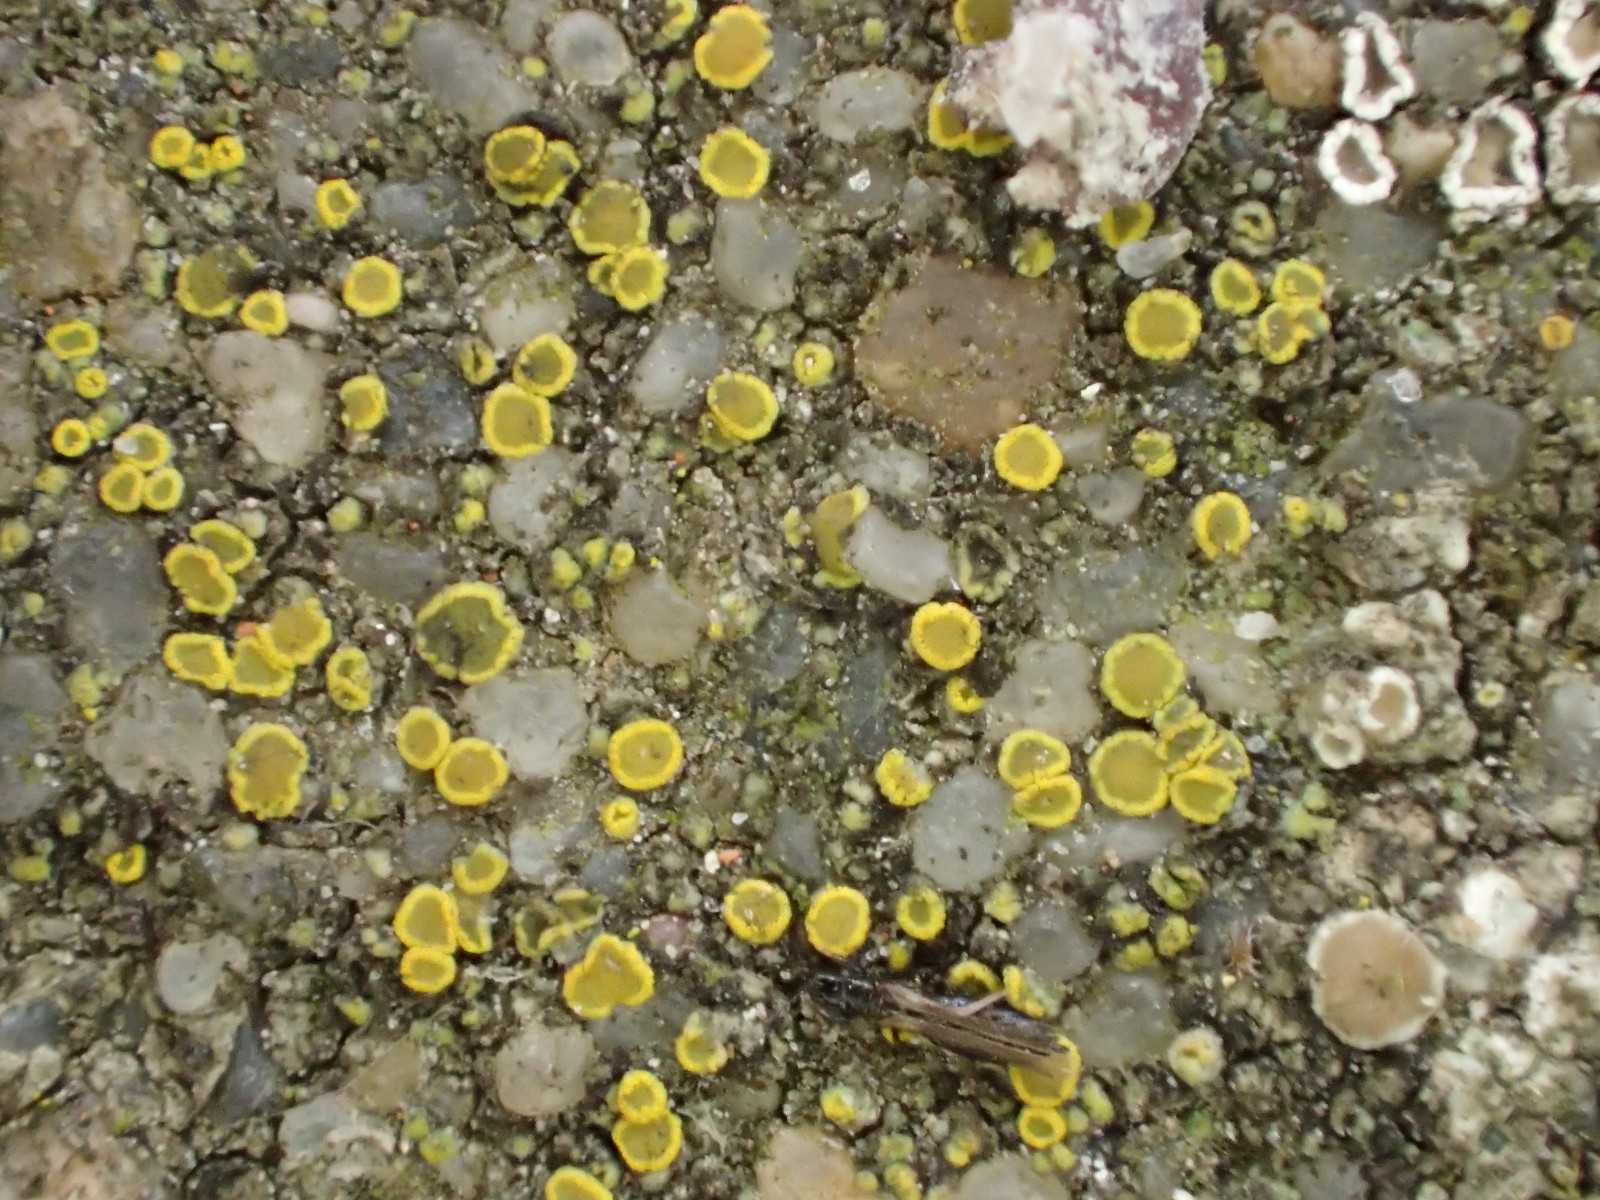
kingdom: Fungi
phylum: Ascomycota
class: Candelariomycetes
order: Candelariales
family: Candelariaceae
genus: Candelariella
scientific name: Candelariella aurella
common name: liden æggeblommelav
